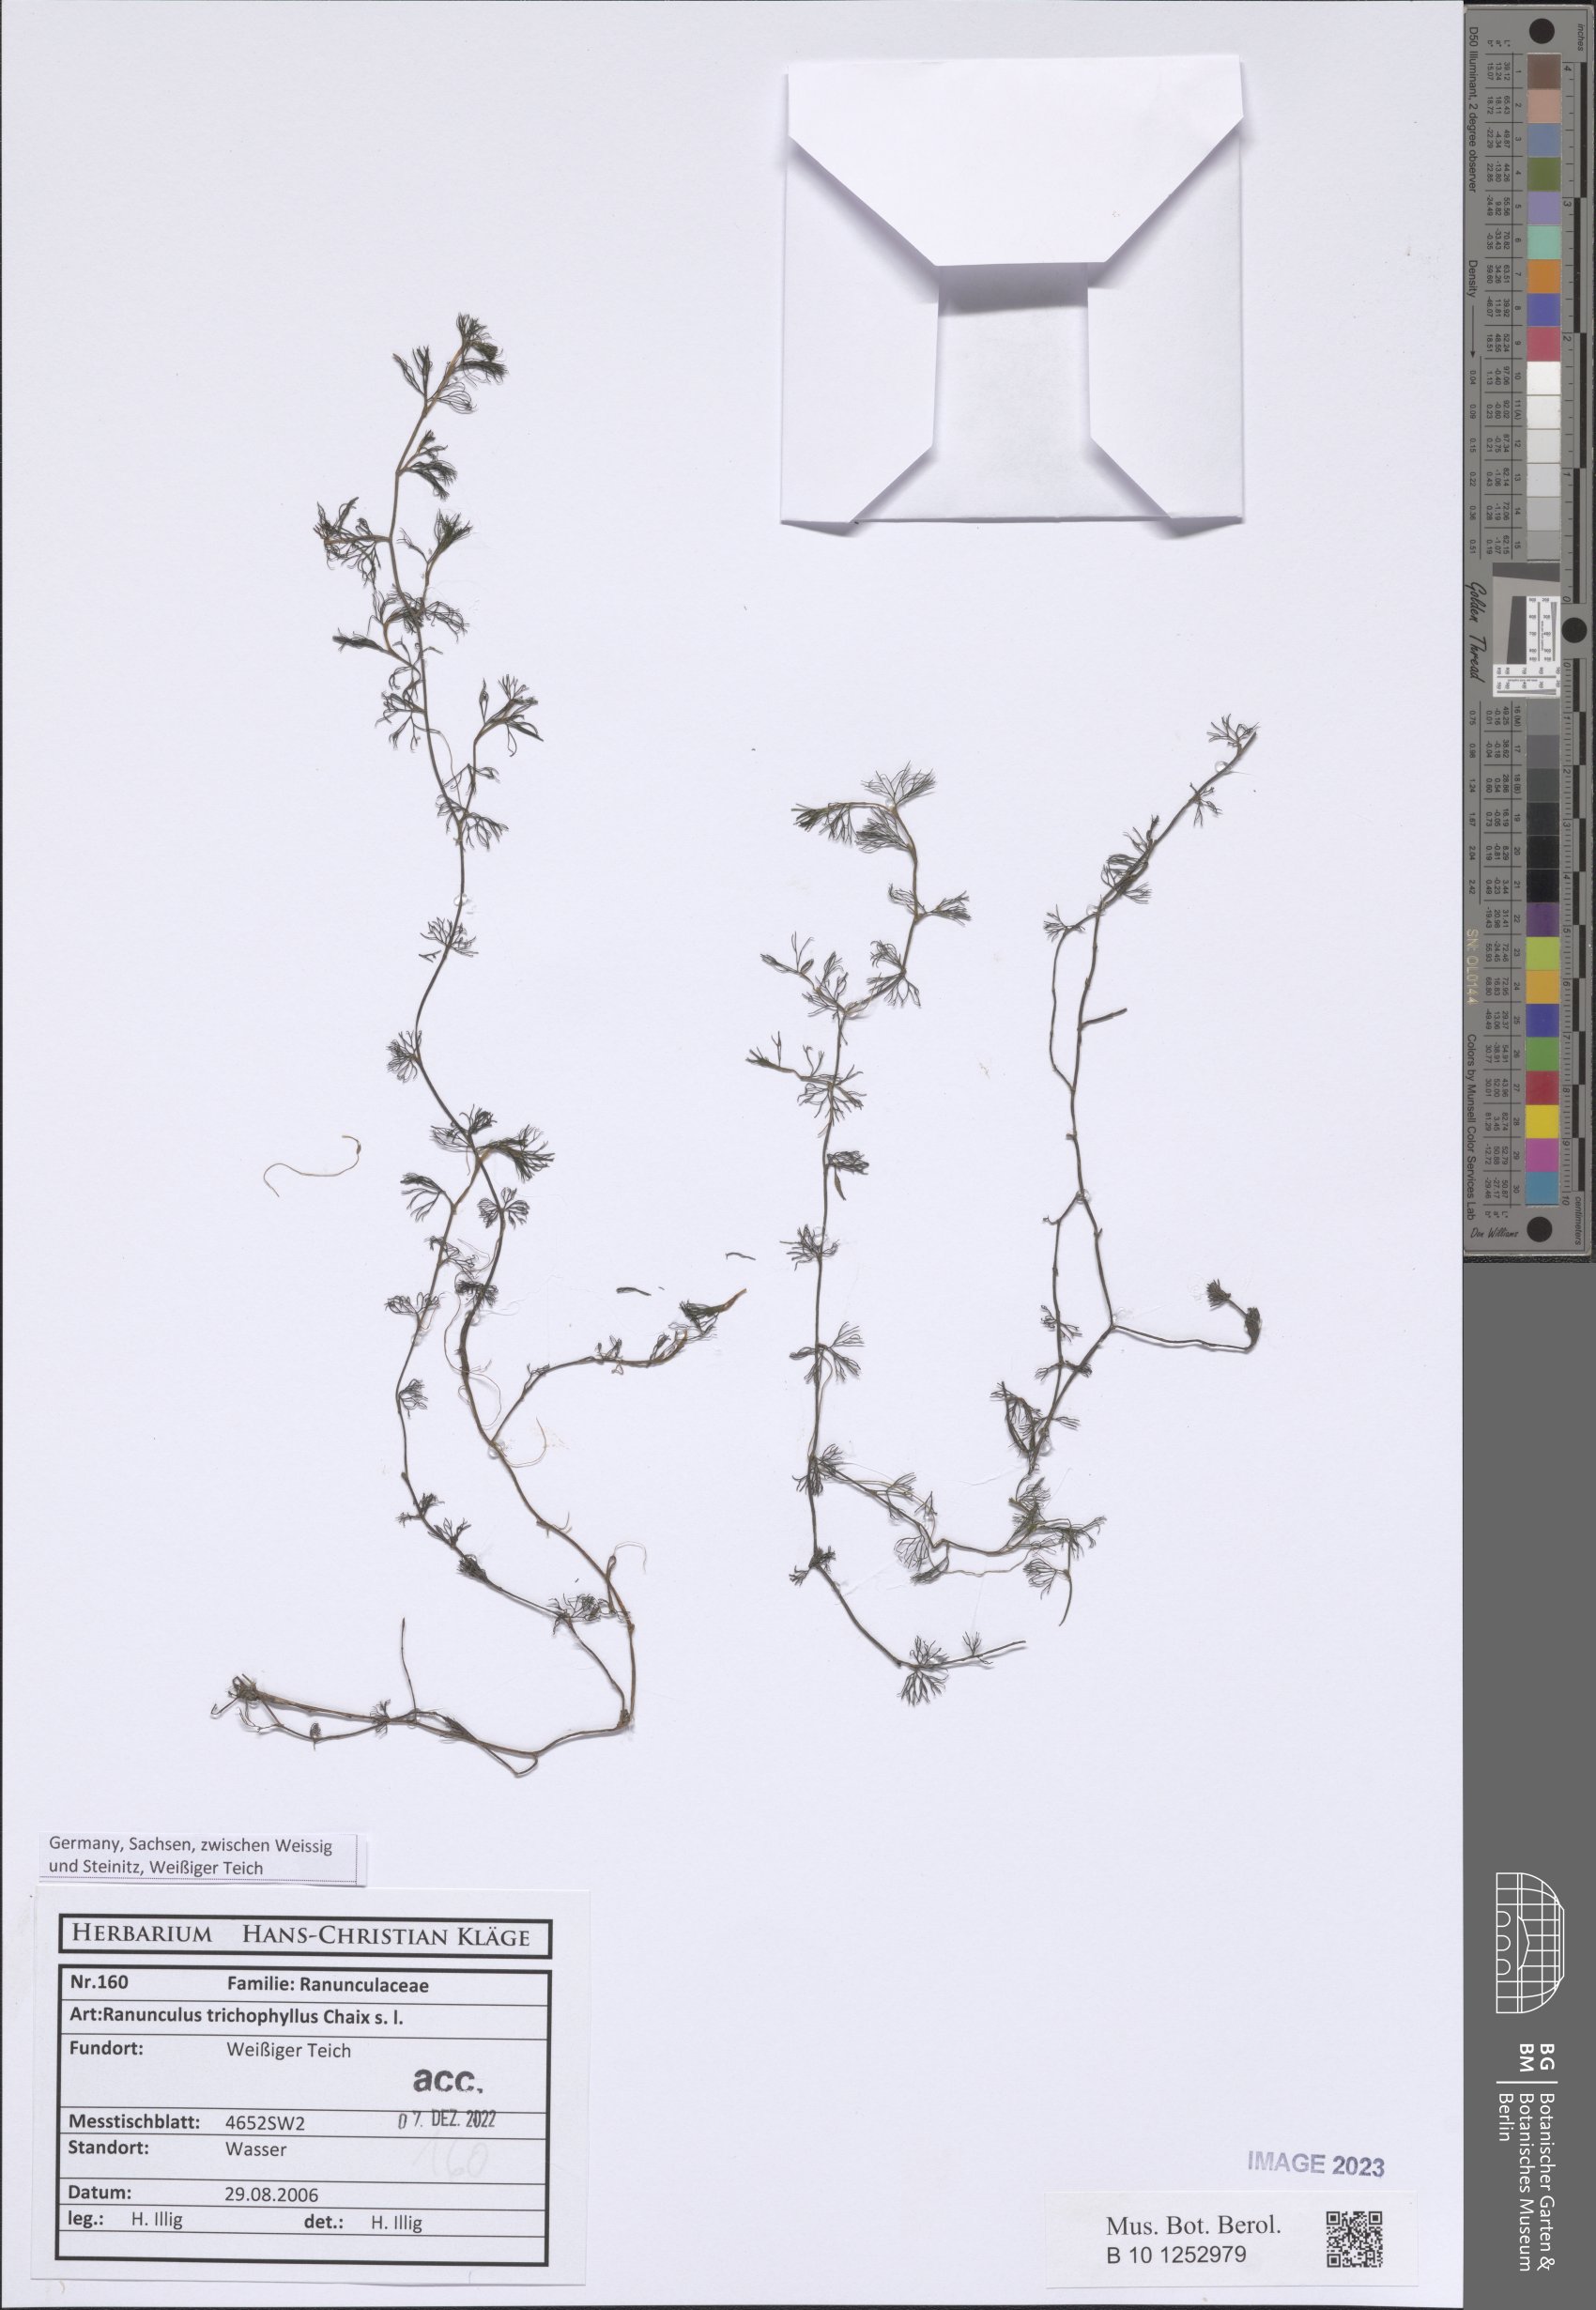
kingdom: Plantae
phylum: Tracheophyta
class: Magnoliopsida
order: Ranunculales
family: Ranunculaceae
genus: Ranunculus
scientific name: Ranunculus circinatus
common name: Fan-leaved water-crowfoot
